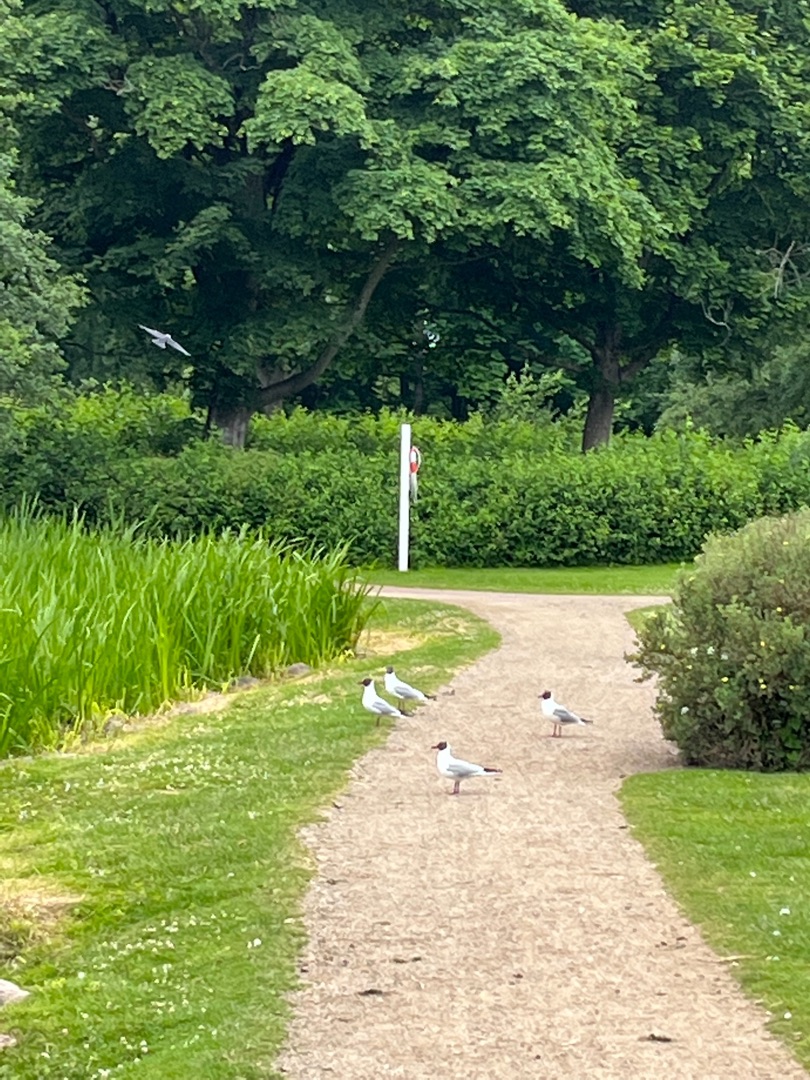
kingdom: Animalia
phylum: Chordata
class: Aves
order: Charadriiformes
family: Laridae
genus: Chroicocephalus
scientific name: Chroicocephalus ridibundus
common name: Hættemåge
